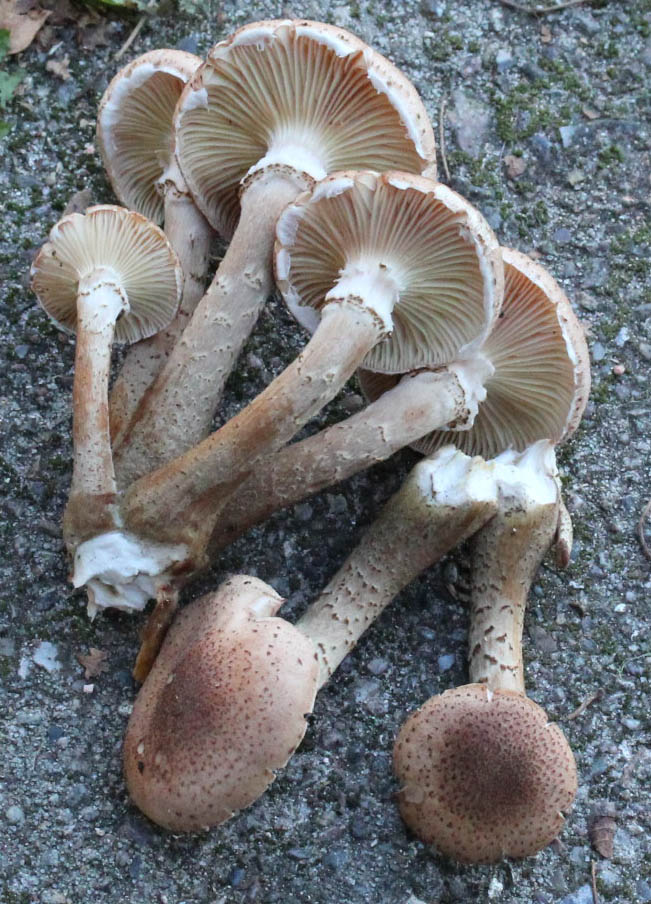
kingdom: Fungi
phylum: Basidiomycota
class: Agaricomycetes
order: Agaricales
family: Physalacriaceae
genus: Armillaria
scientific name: Armillaria ostoyae
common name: mørk honningsvamp
